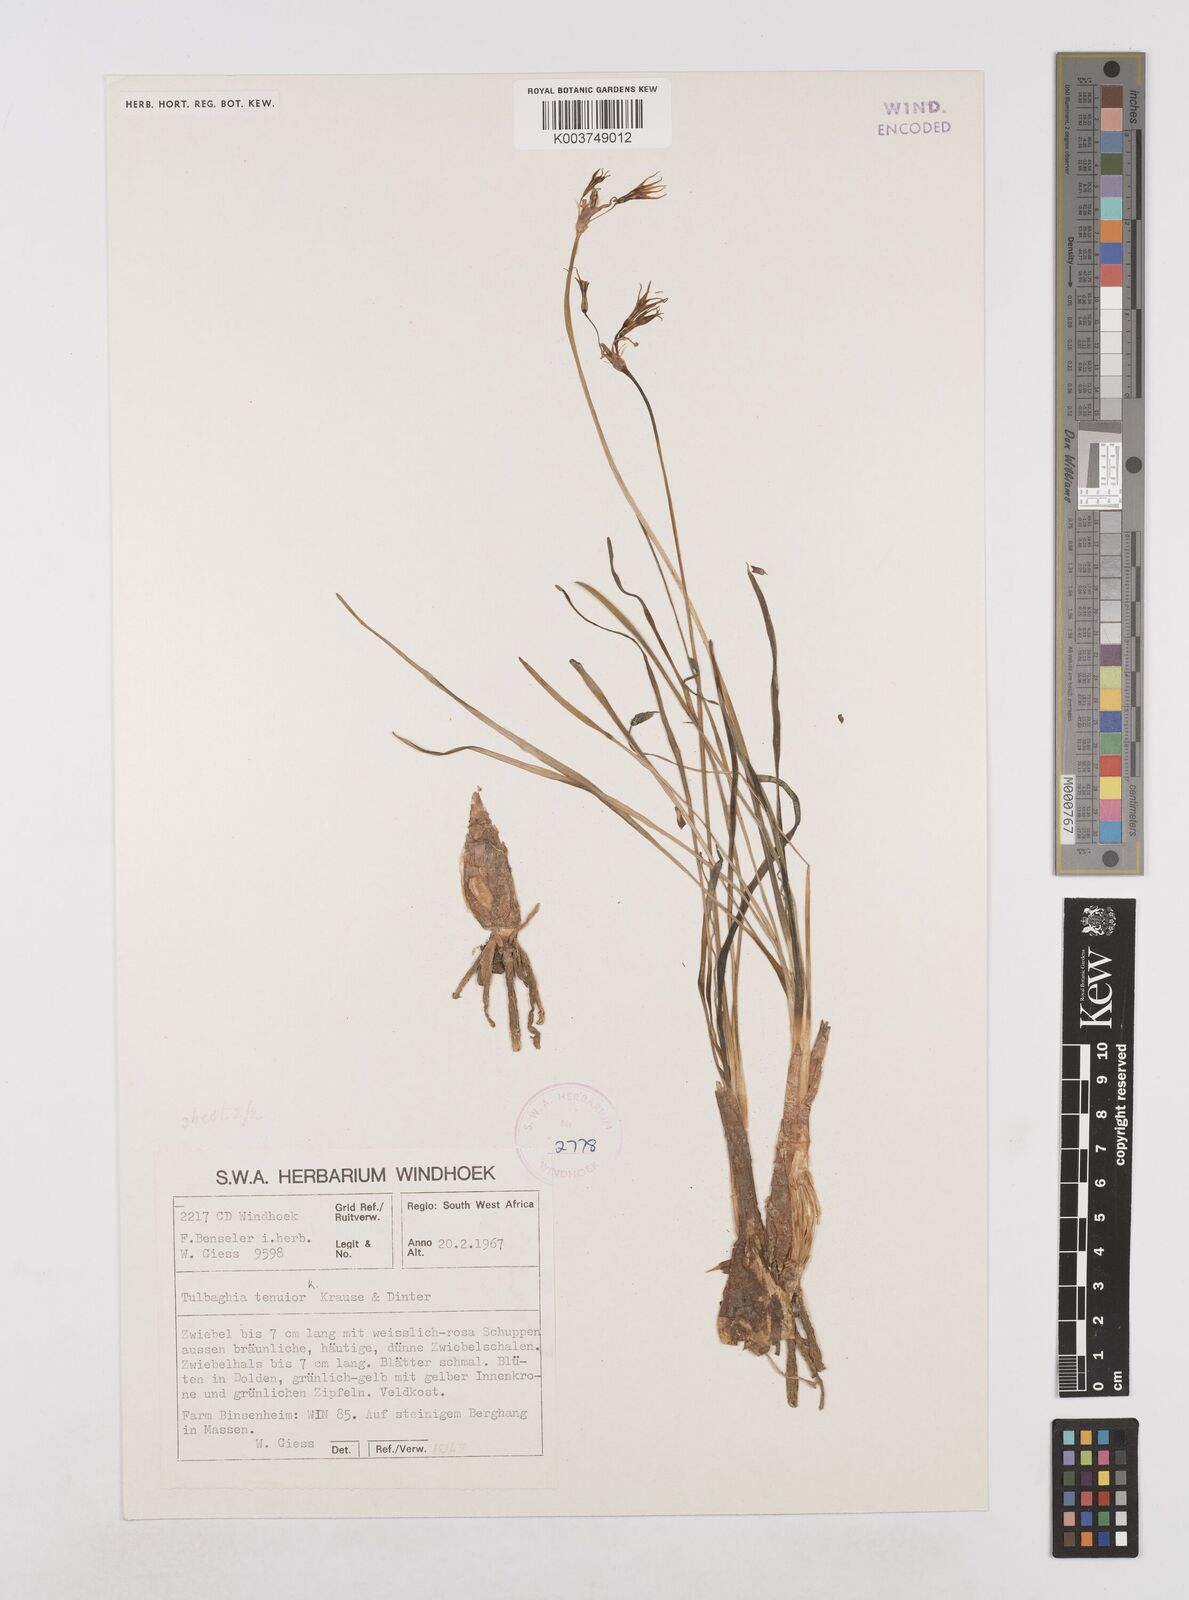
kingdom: Plantae
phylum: Tracheophyta
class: Liliopsida
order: Asparagales
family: Amaryllidaceae
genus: Tulbaghia
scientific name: Tulbaghia tenuior
